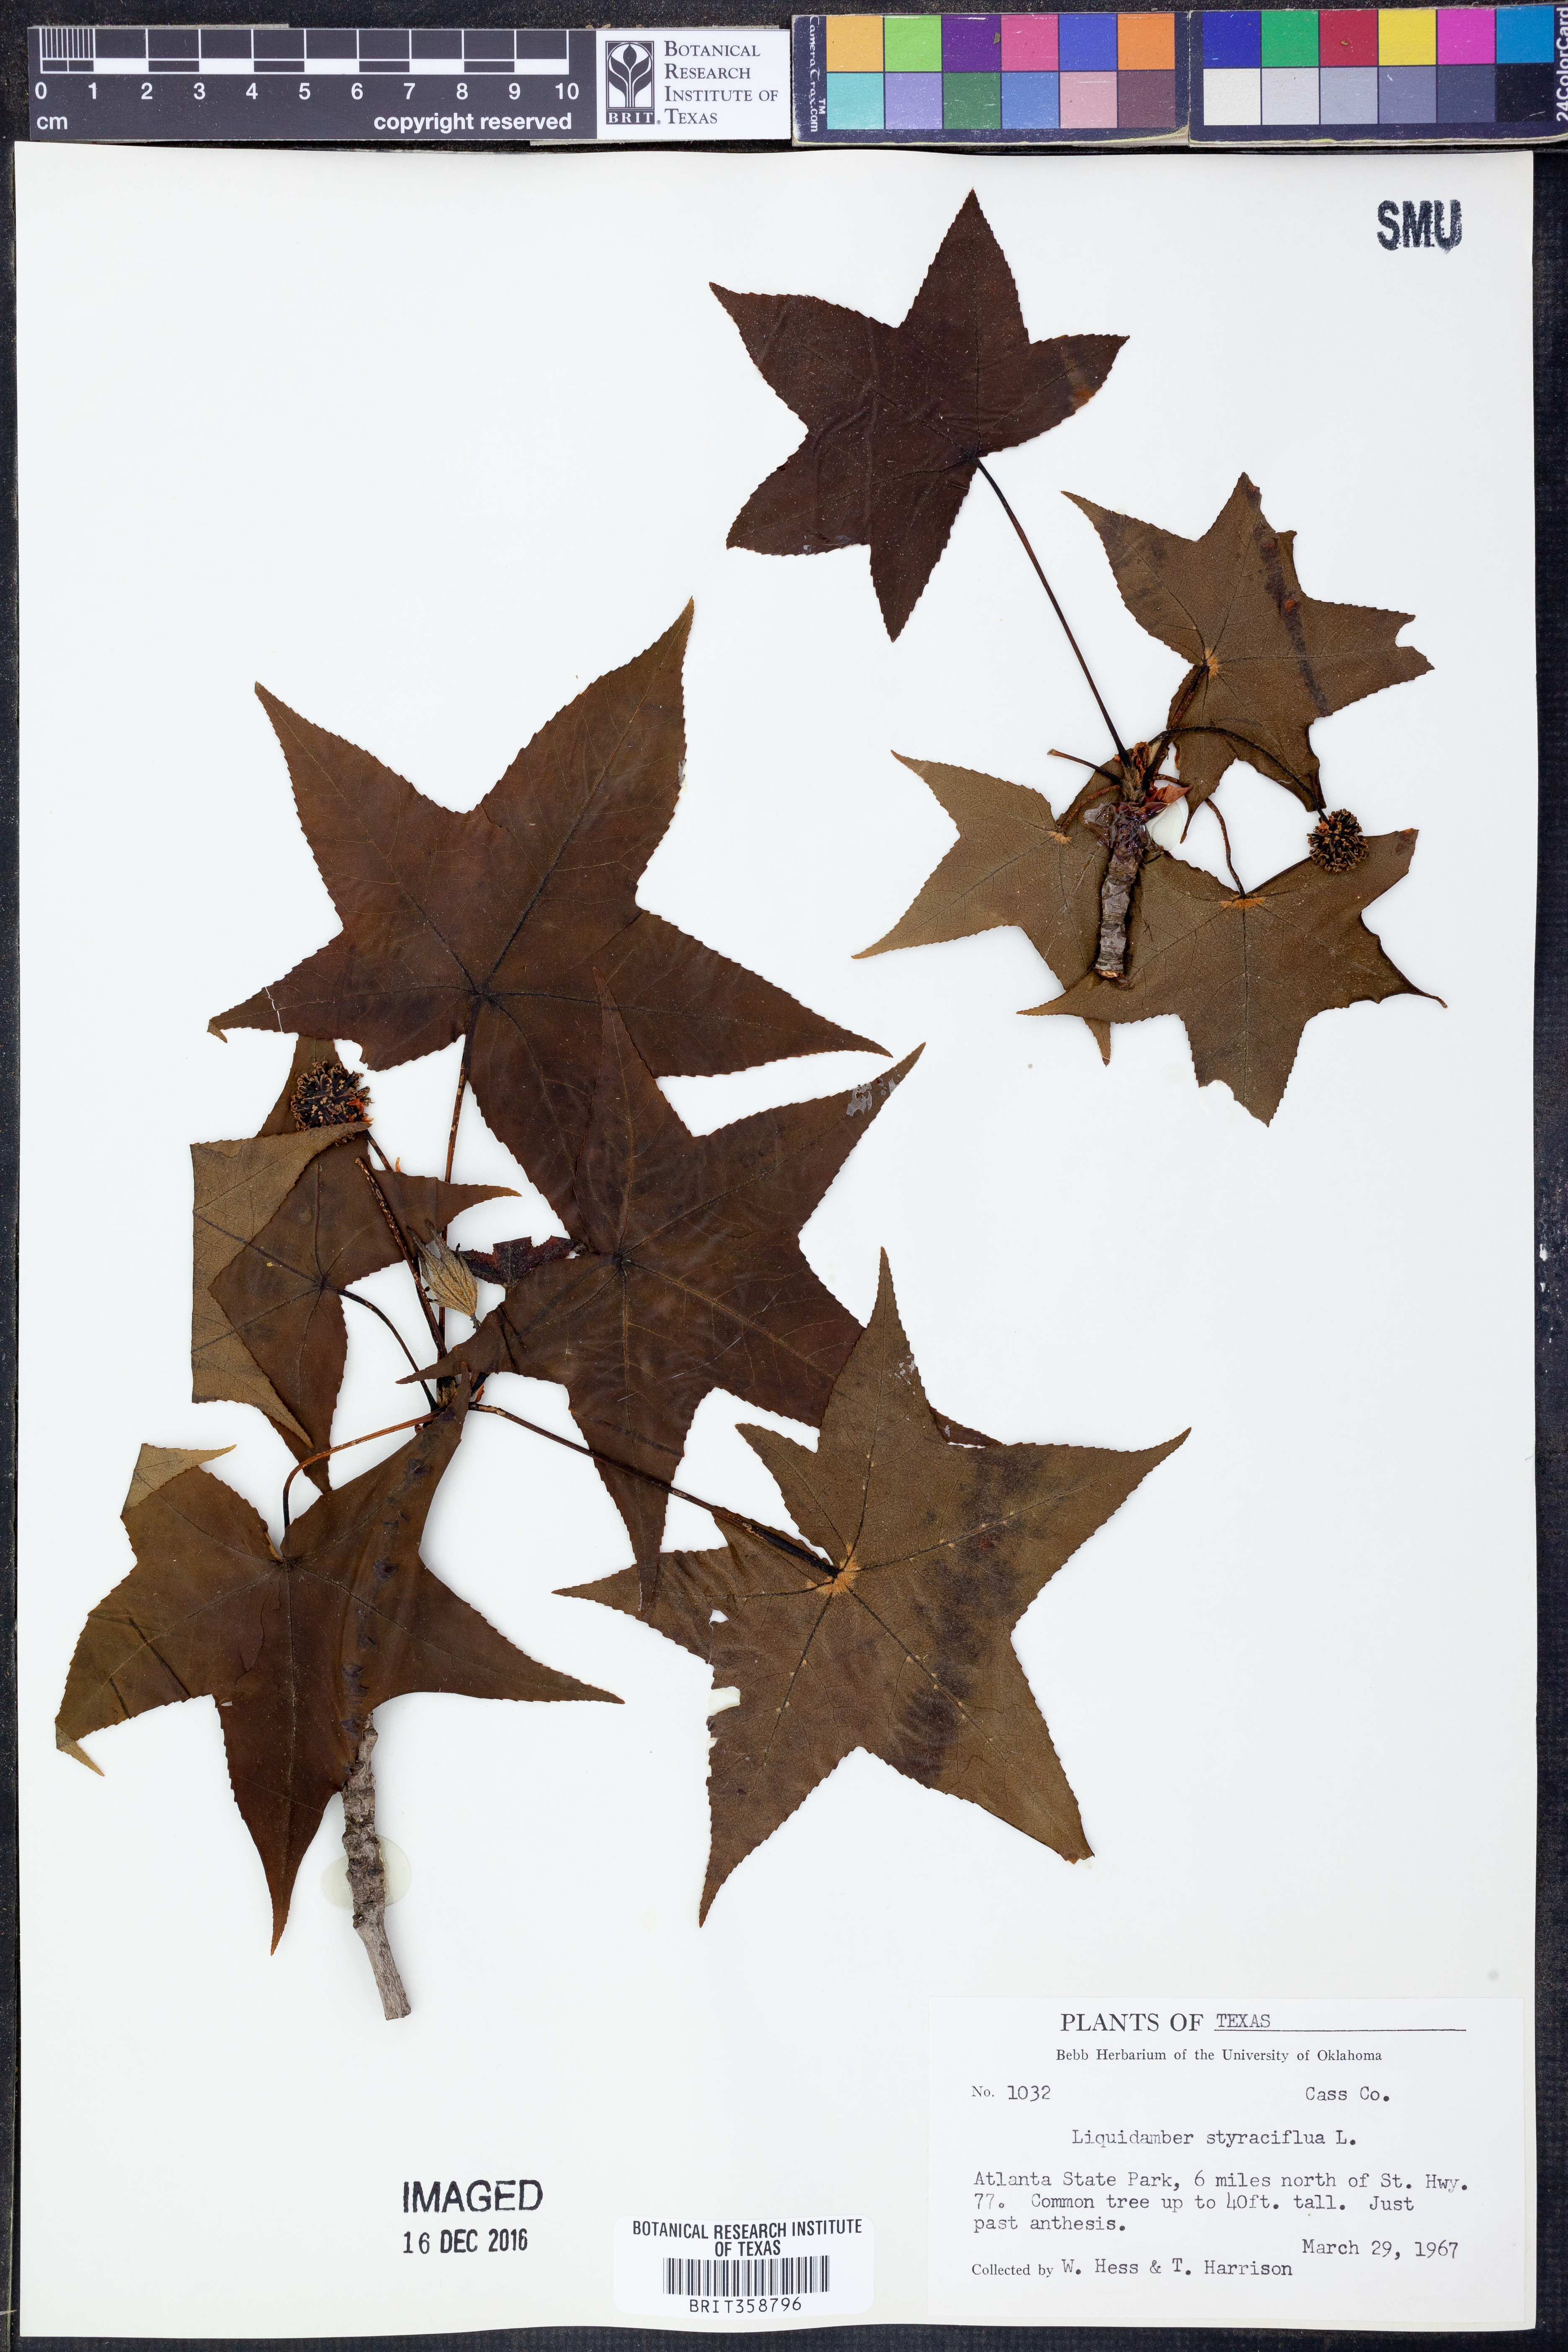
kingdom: Plantae
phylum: Tracheophyta
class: Magnoliopsida
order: Saxifragales
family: Altingiaceae
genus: Liquidambar
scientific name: Liquidambar styraciflua
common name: Sweet gum
